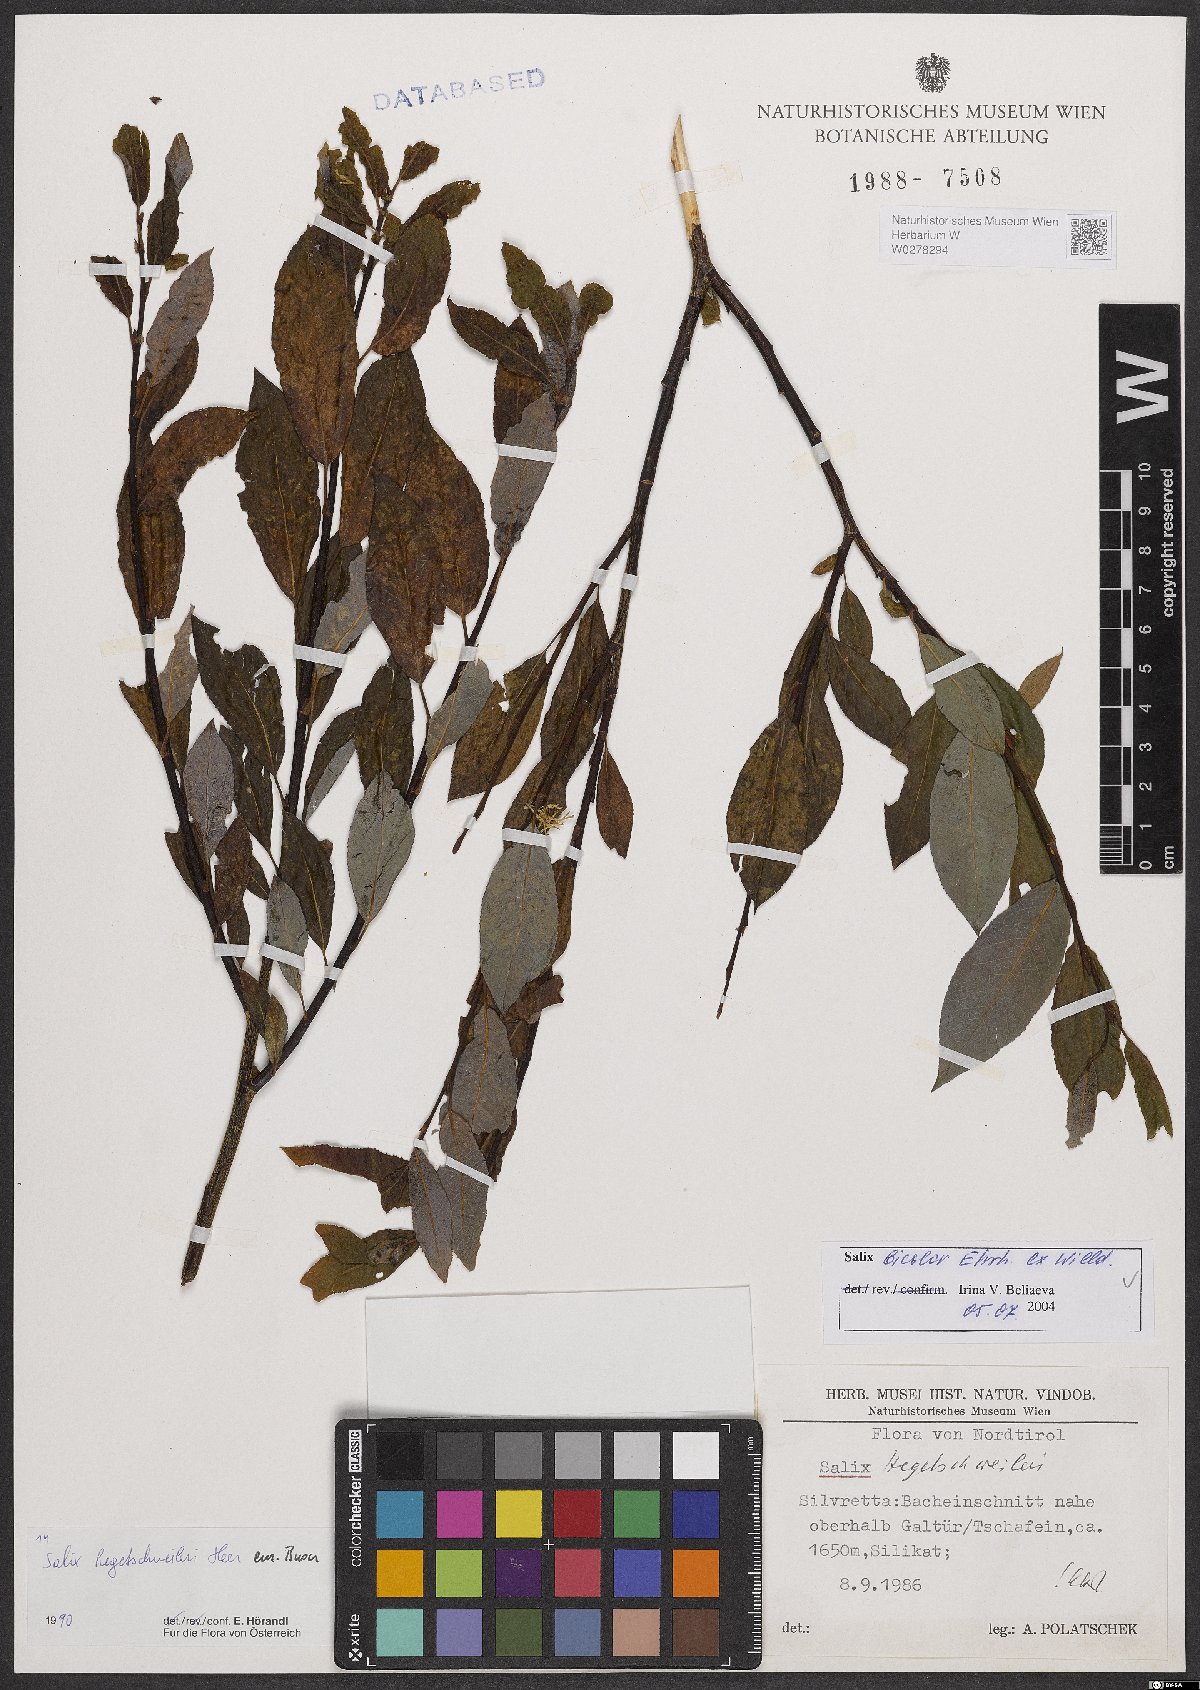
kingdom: Plantae
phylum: Tracheophyta
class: Magnoliopsida
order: Malpighiales
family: Salicaceae
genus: Salix
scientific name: Salix bicolor
